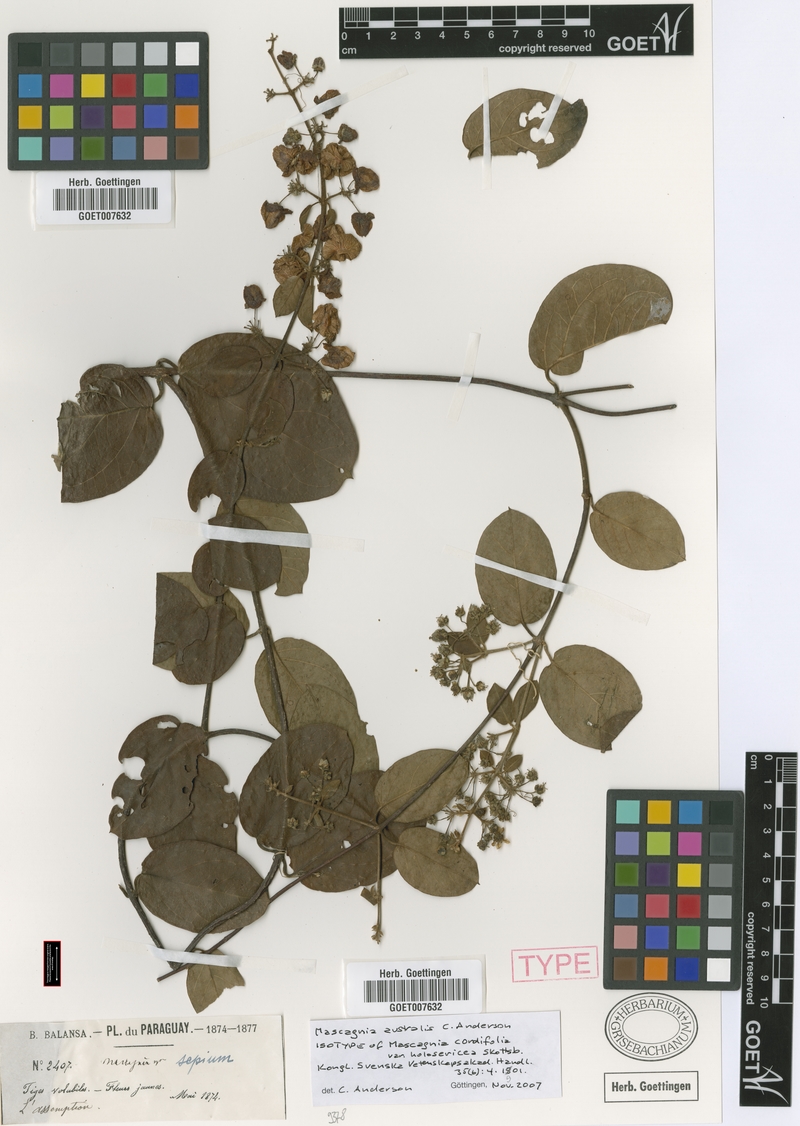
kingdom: Plantae
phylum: Tracheophyta
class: Magnoliopsida
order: Malpighiales
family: Malpighiaceae
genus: Mascagnia
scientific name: Mascagnia australis
